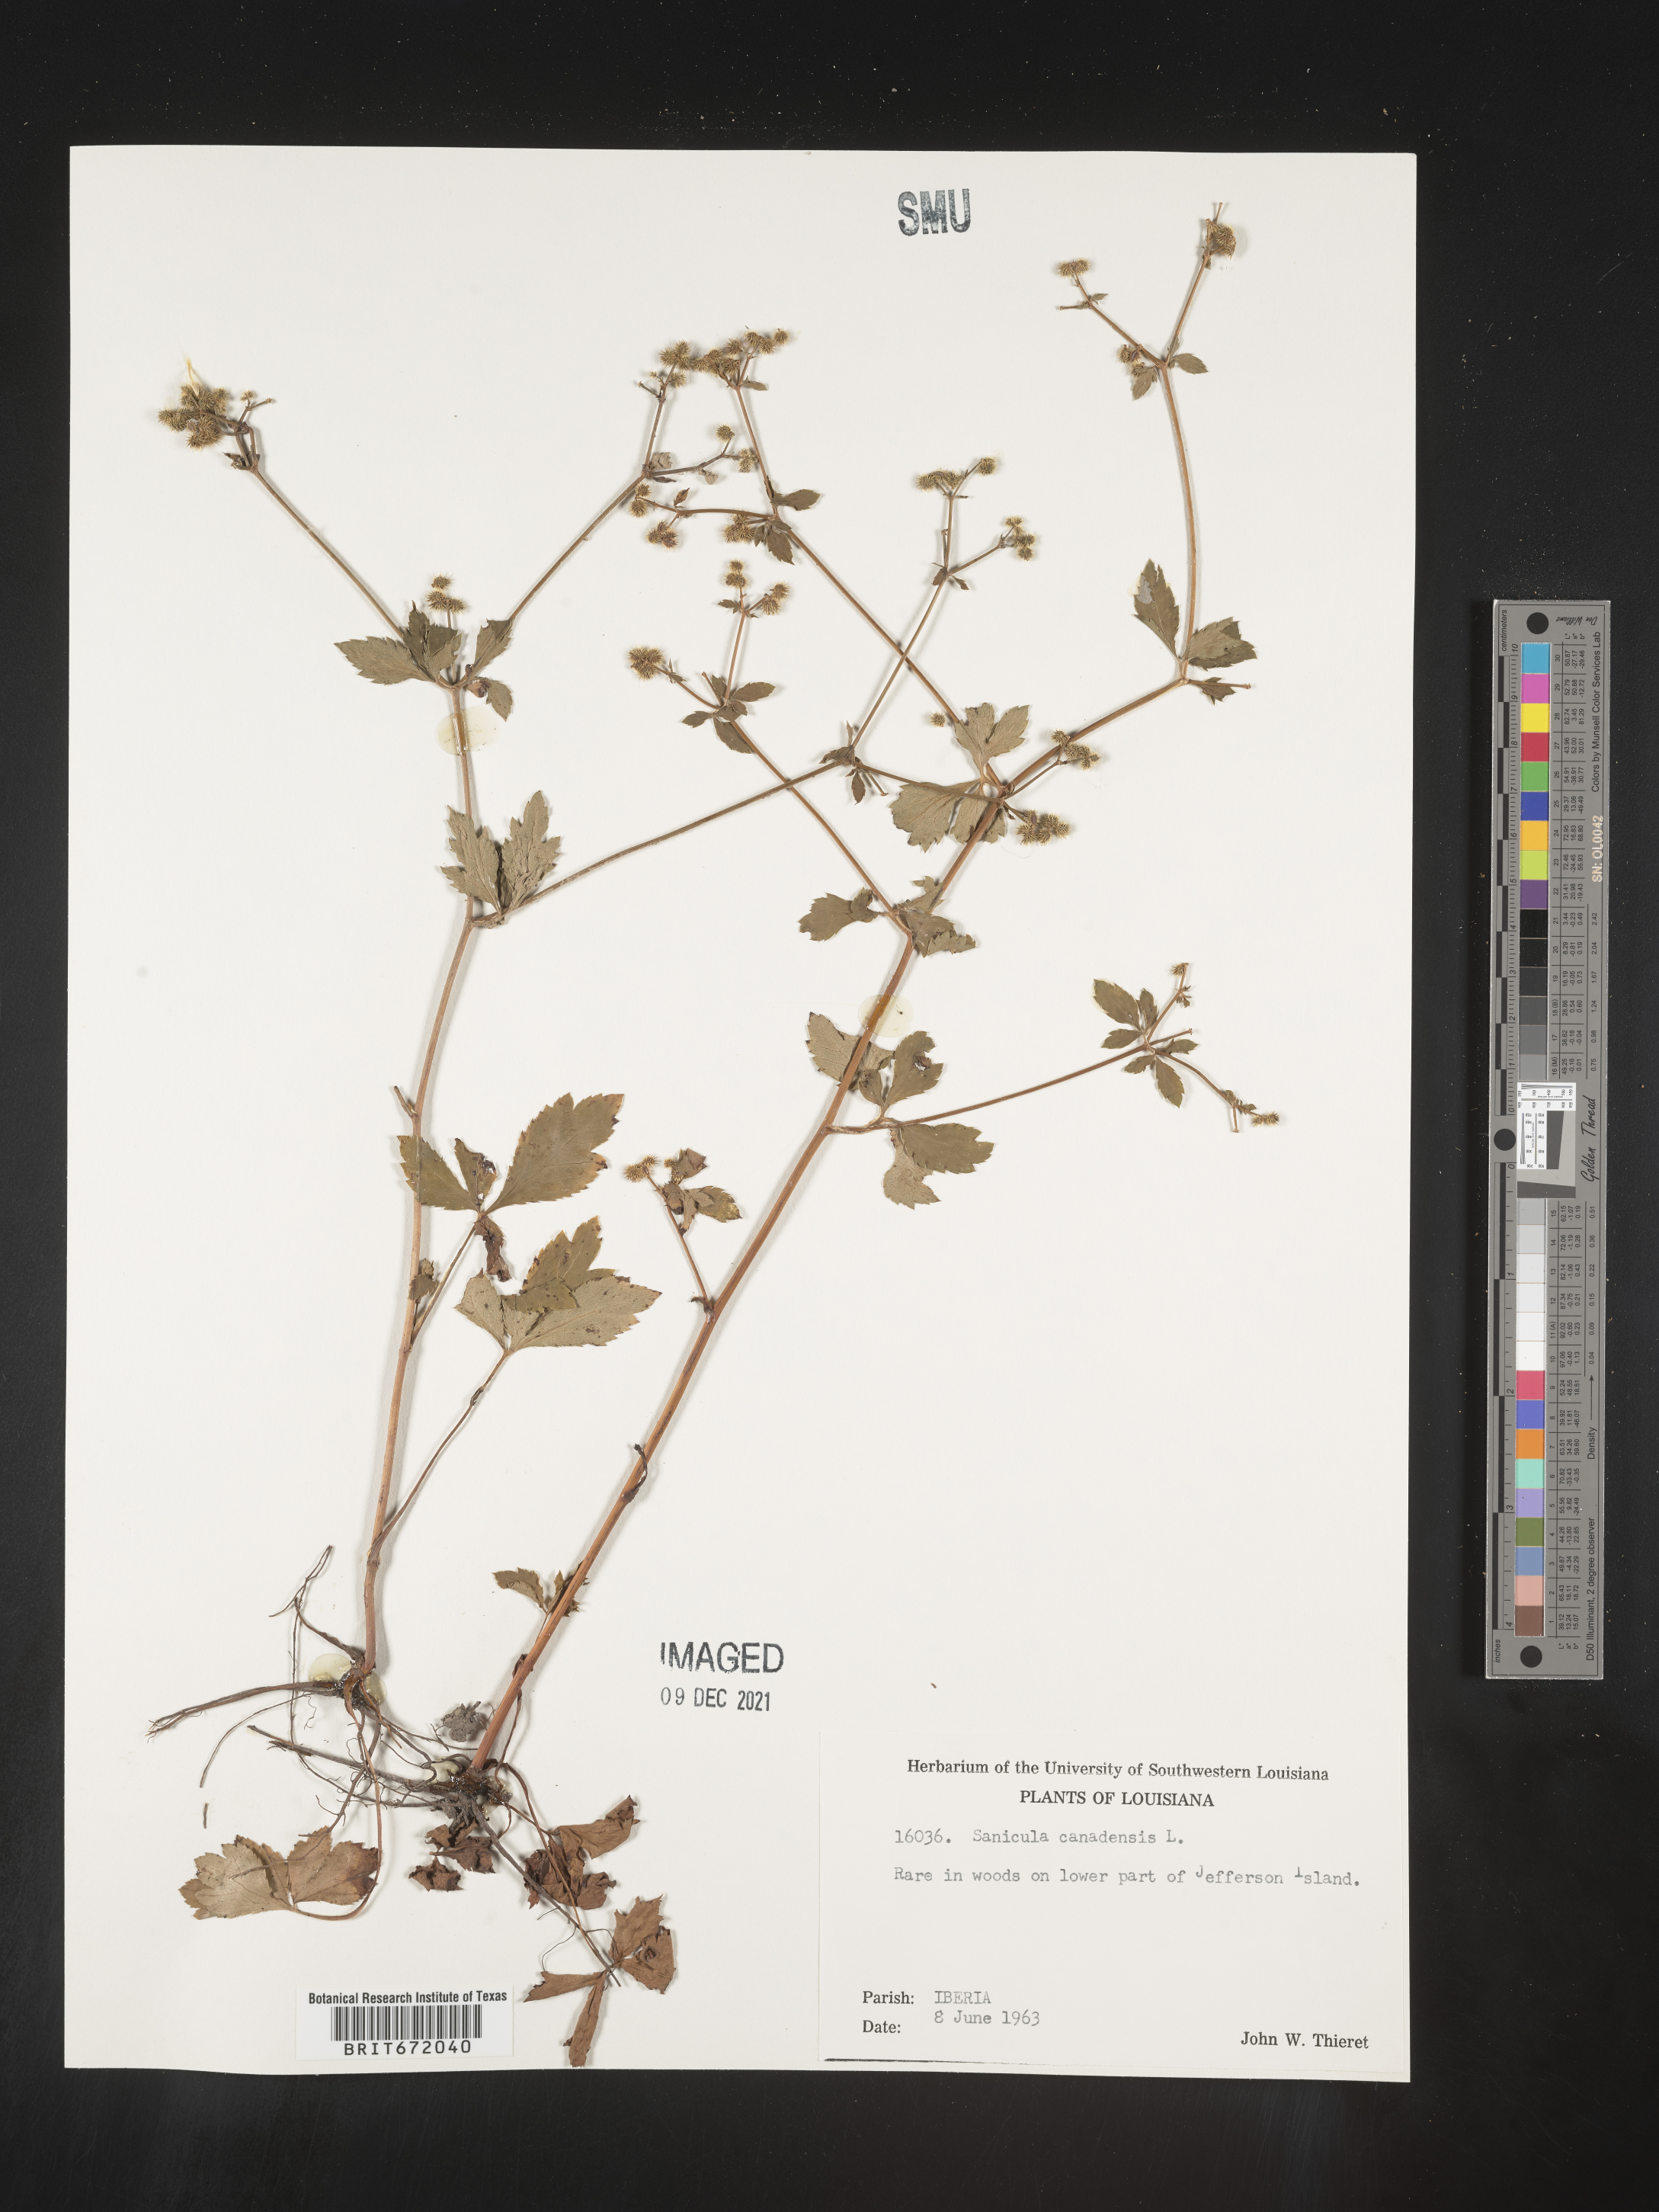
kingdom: Plantae
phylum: Tracheophyta
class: Magnoliopsida
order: Apiales
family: Apiaceae
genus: Sanicula
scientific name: Sanicula canadensis
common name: Canada sanicle
